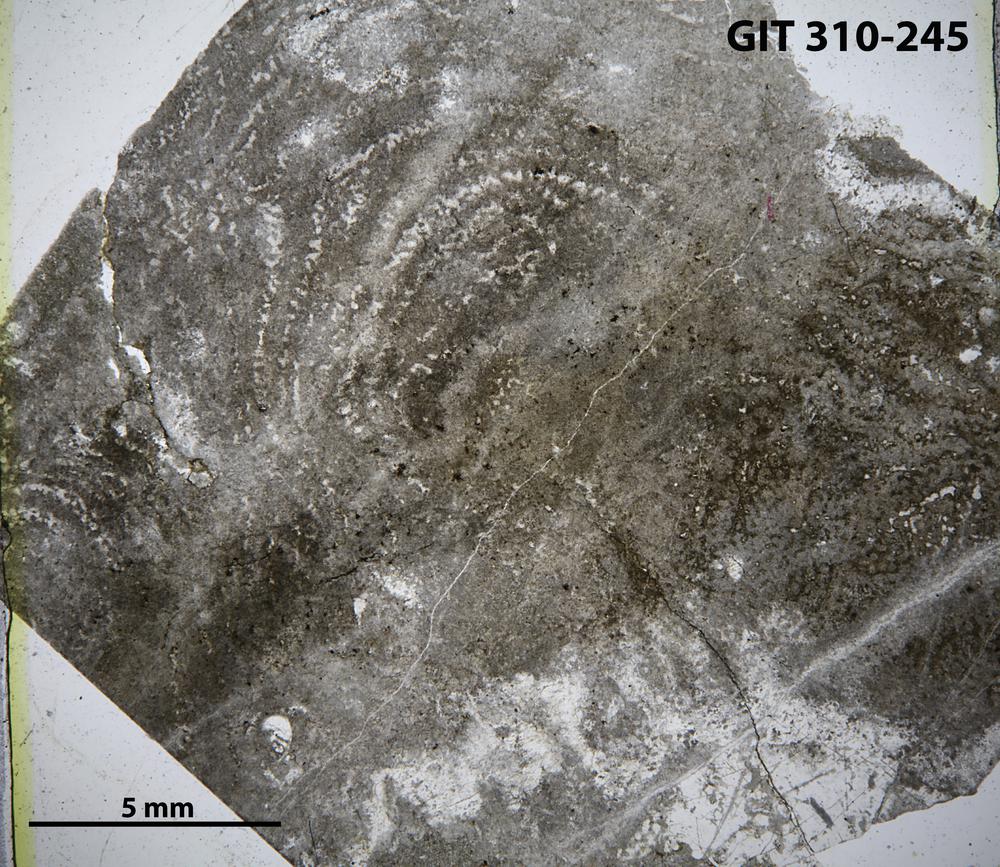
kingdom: Animalia
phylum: Porifera
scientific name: Porifera
